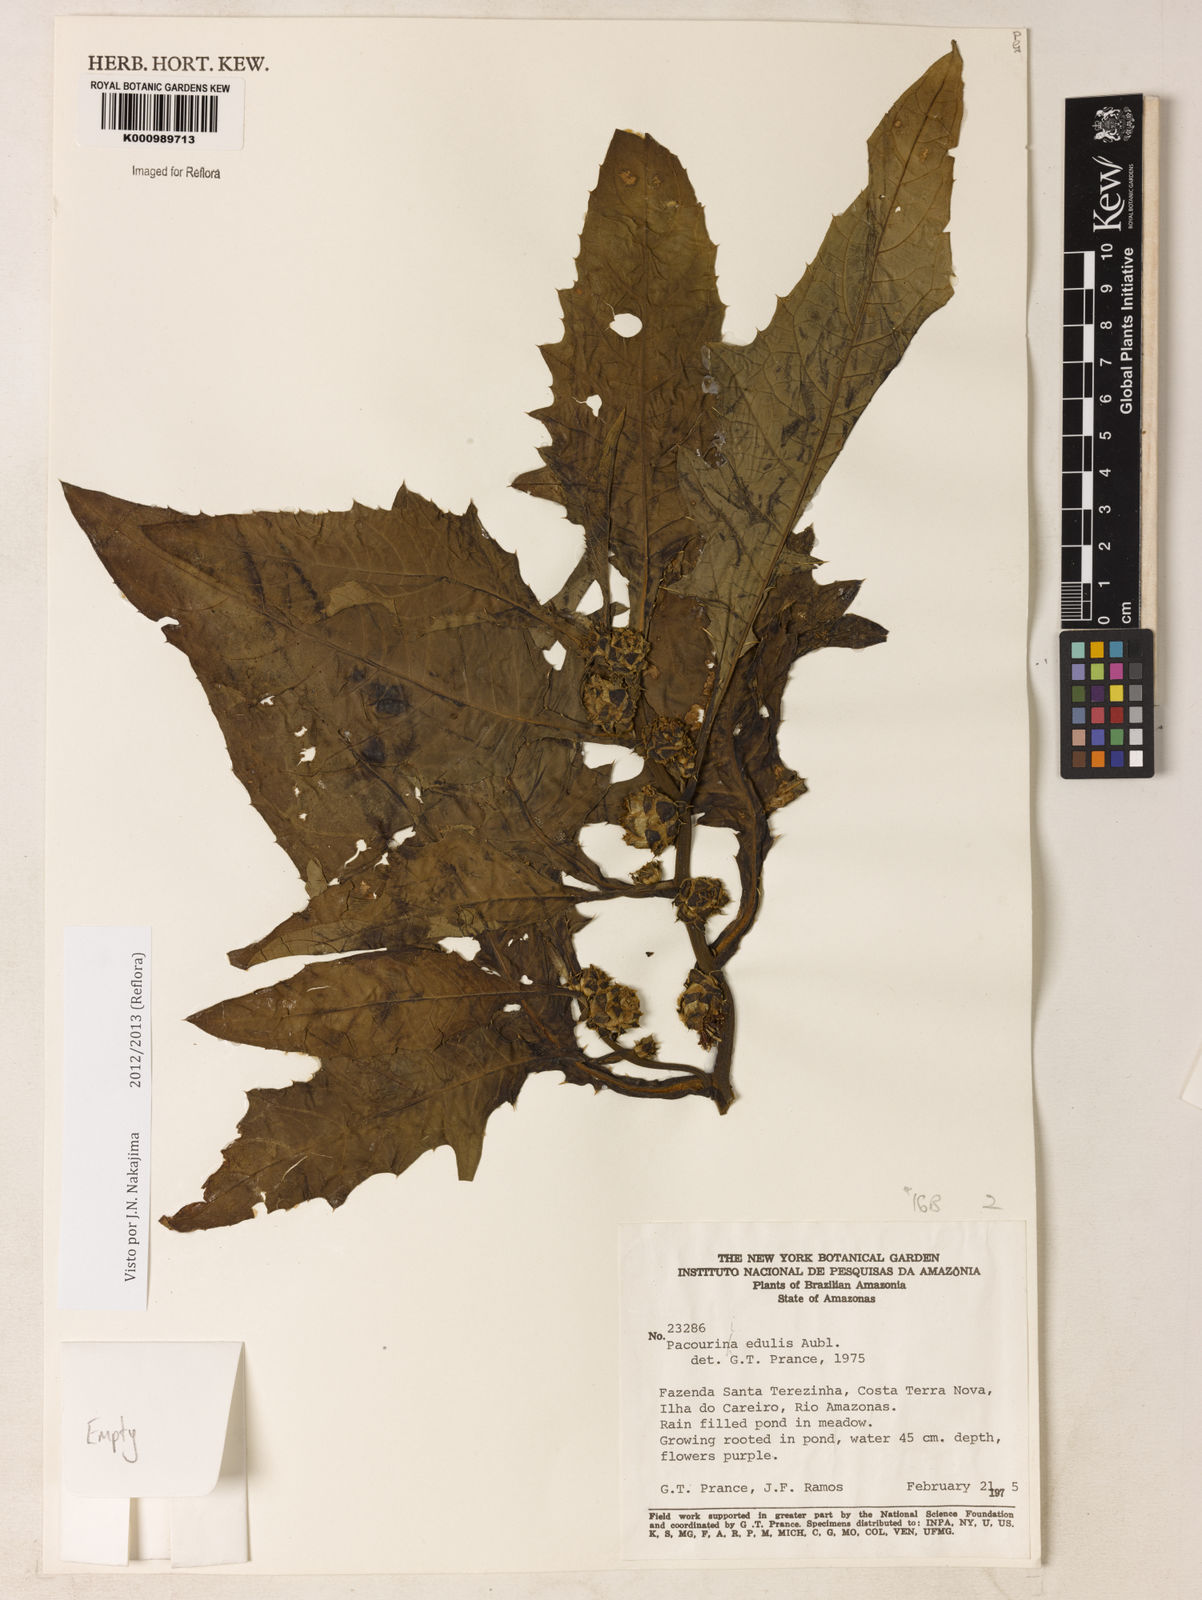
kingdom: Plantae
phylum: Tracheophyta
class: Magnoliopsida
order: Asterales
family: Asteraceae
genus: Pacourina
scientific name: Pacourina edulis
